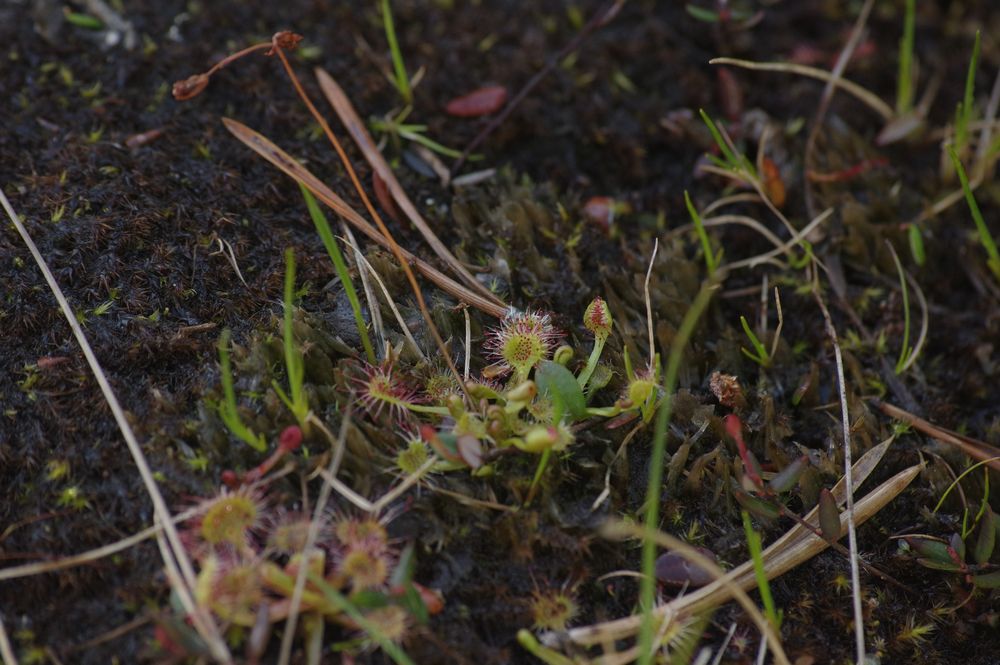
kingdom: Plantae
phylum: Tracheophyta
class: Magnoliopsida
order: Caryophyllales
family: Droseraceae
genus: Drosera
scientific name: Drosera rotundifolia
